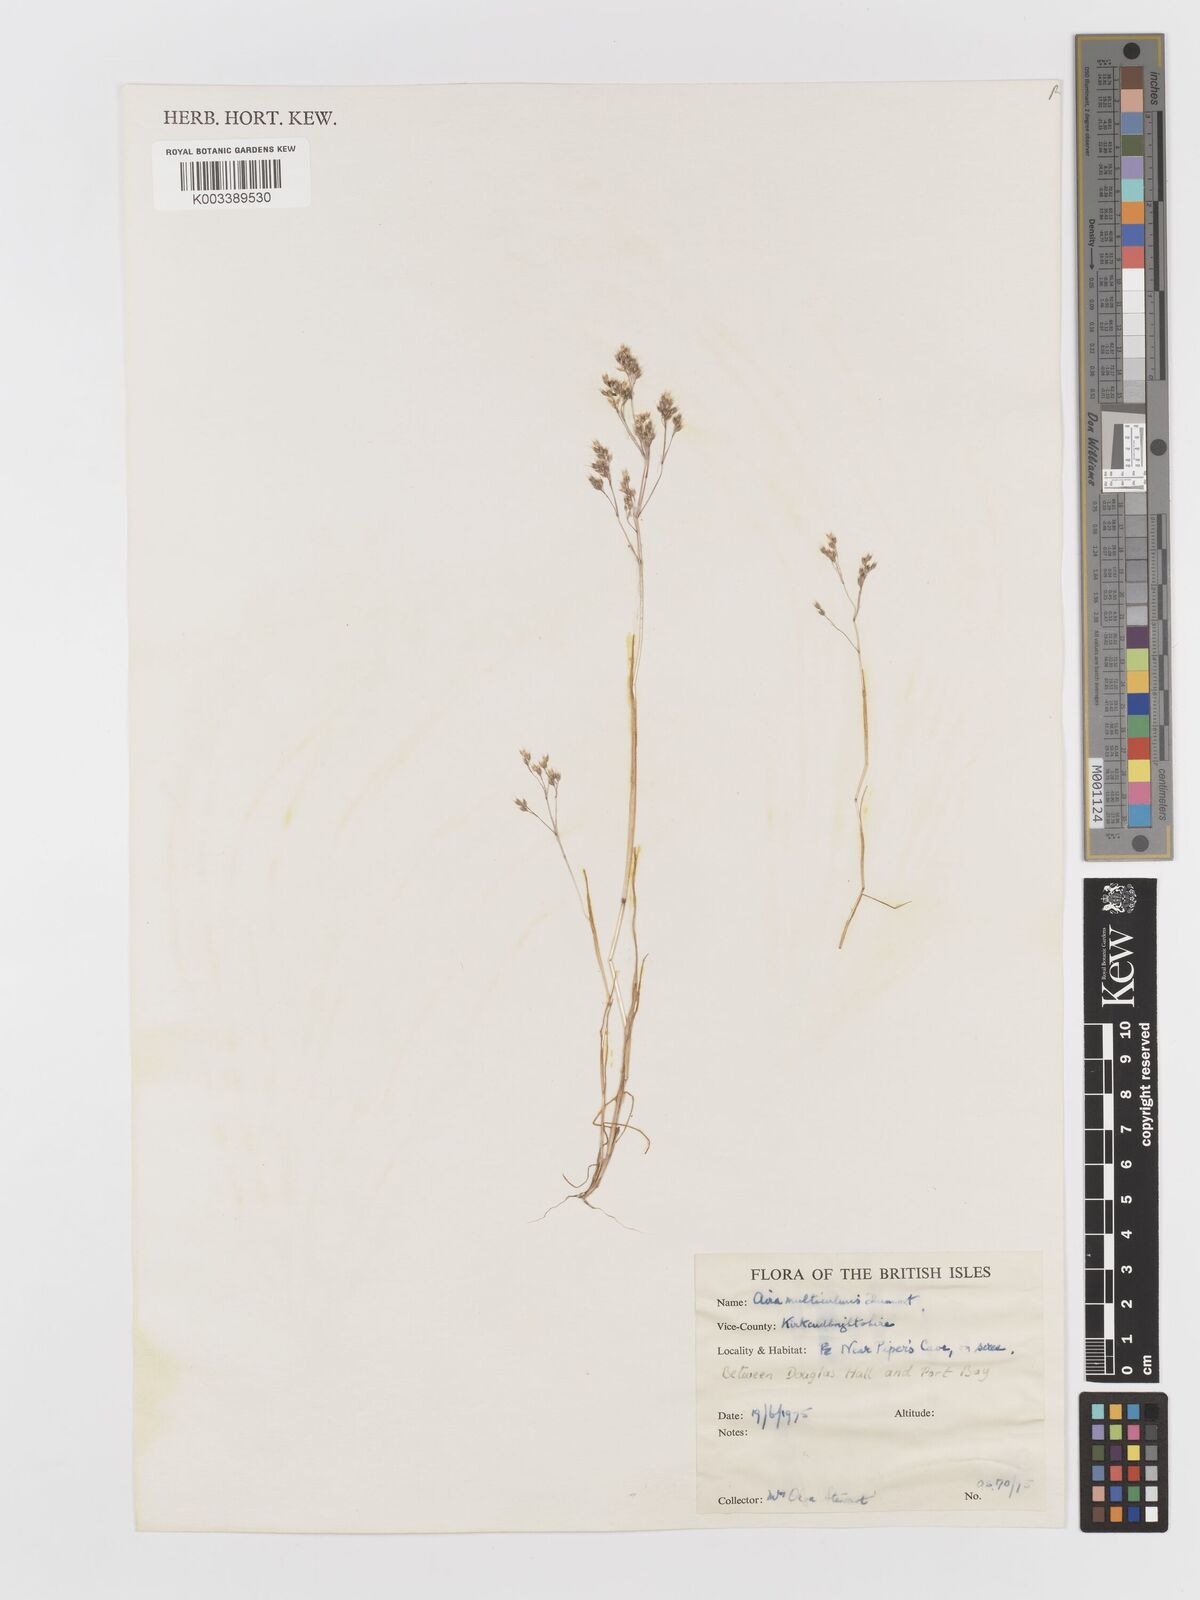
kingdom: Plantae
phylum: Tracheophyta
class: Liliopsida
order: Poales
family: Poaceae
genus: Aira
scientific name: Aira caryophyllea
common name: Silver hairgrass
